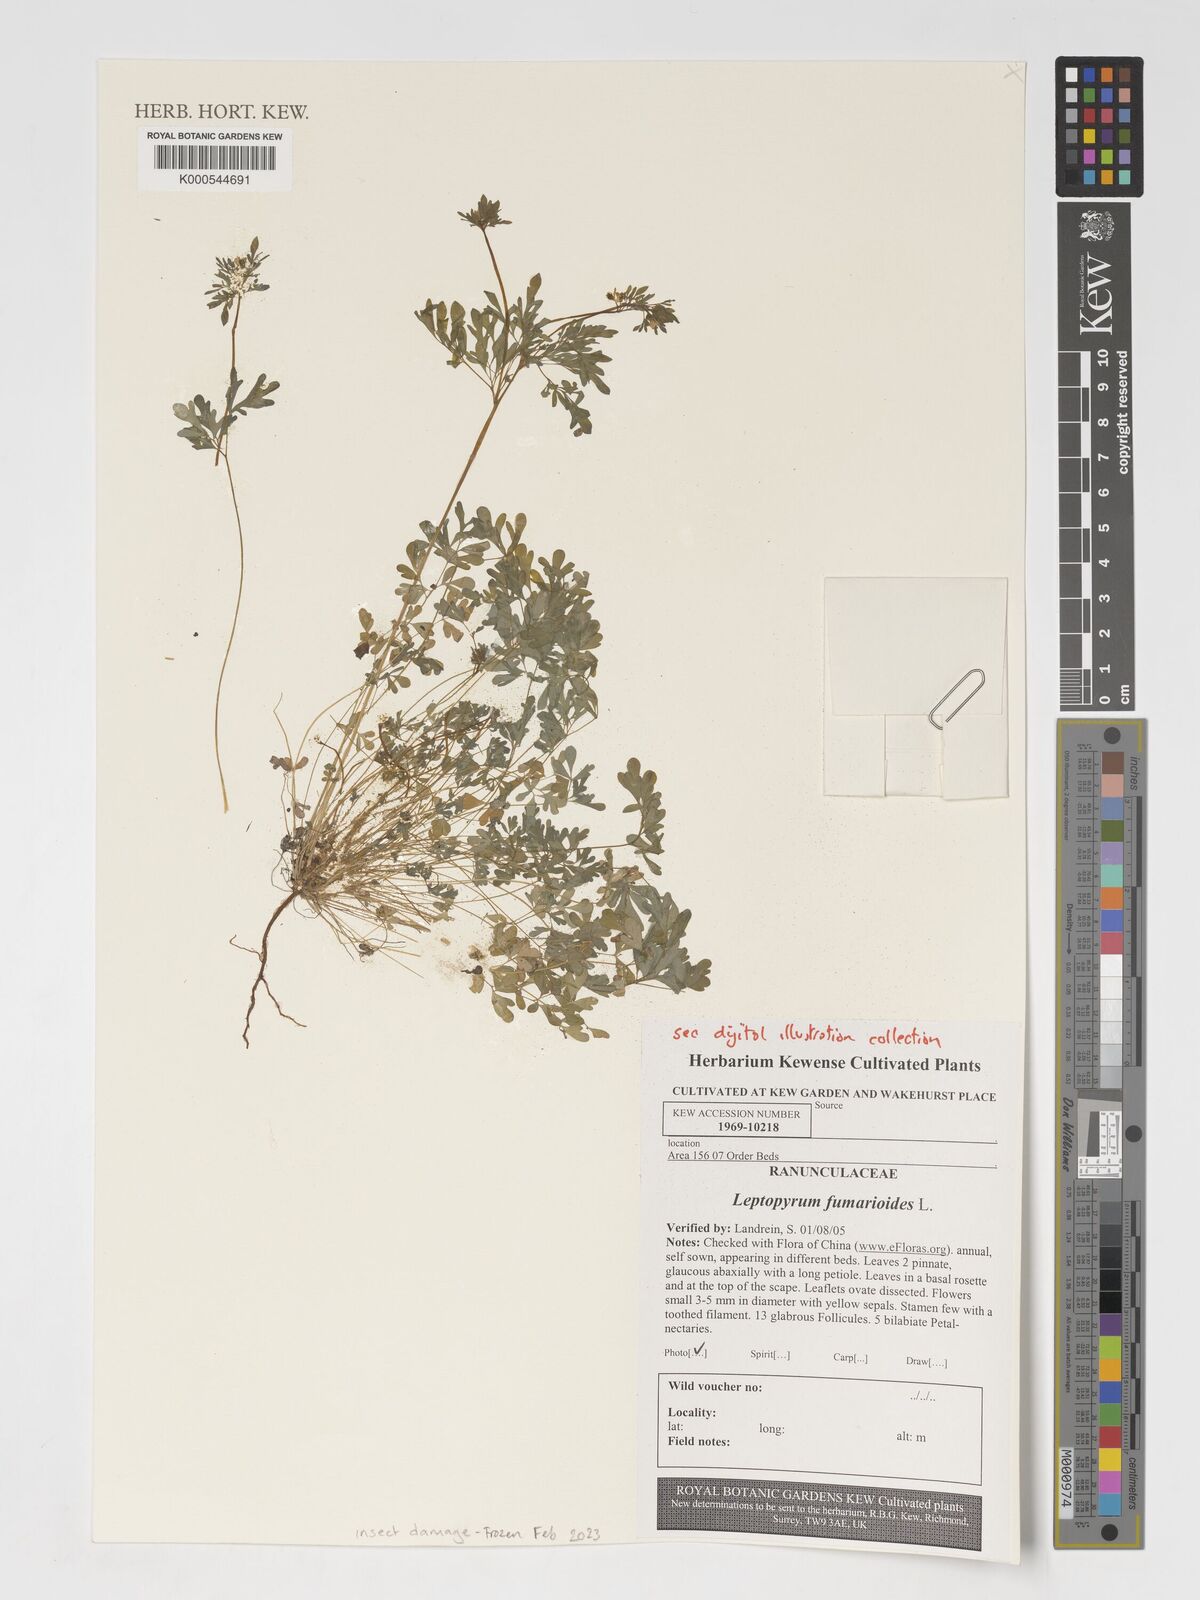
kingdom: Plantae
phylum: Tracheophyta
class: Magnoliopsida
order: Ranunculales
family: Ranunculaceae
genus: Leptopyrum
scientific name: Leptopyrum fumarioides
